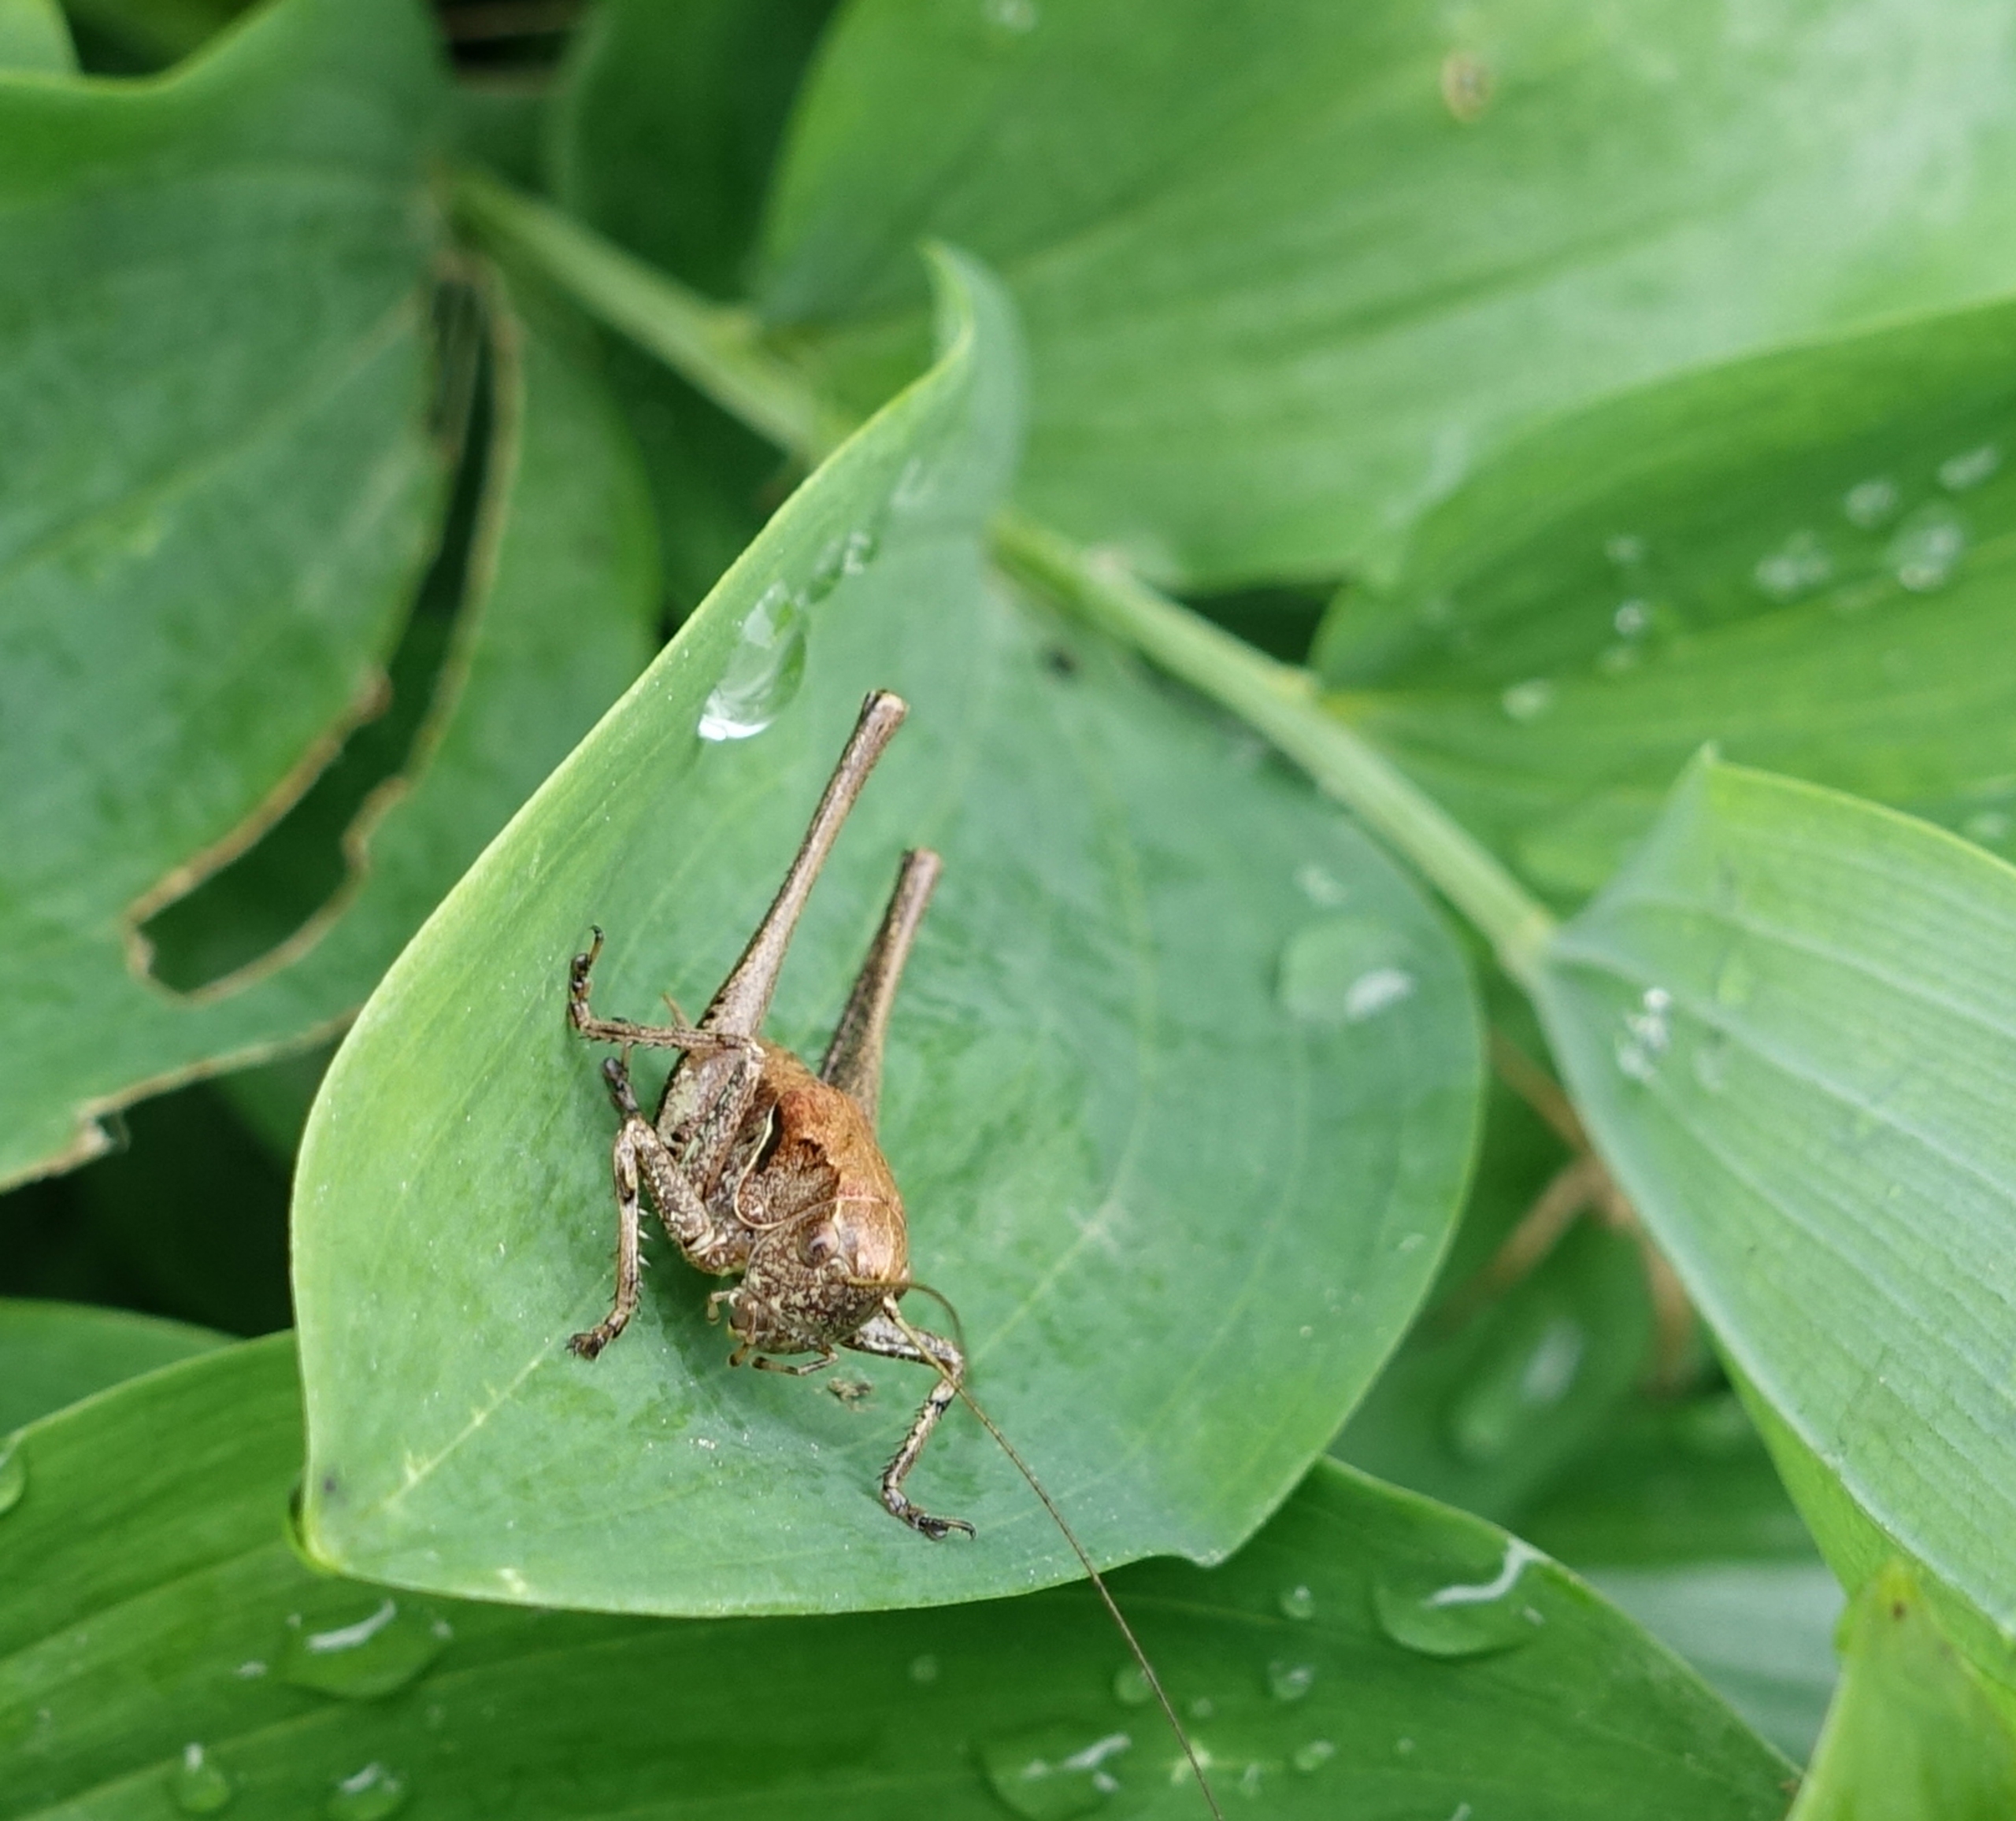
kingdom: Animalia
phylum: Arthropoda
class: Insecta
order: Orthoptera
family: Tettigoniidae
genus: Pholidoptera
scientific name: Pholidoptera griseoaptera
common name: Buskgræshoppe
